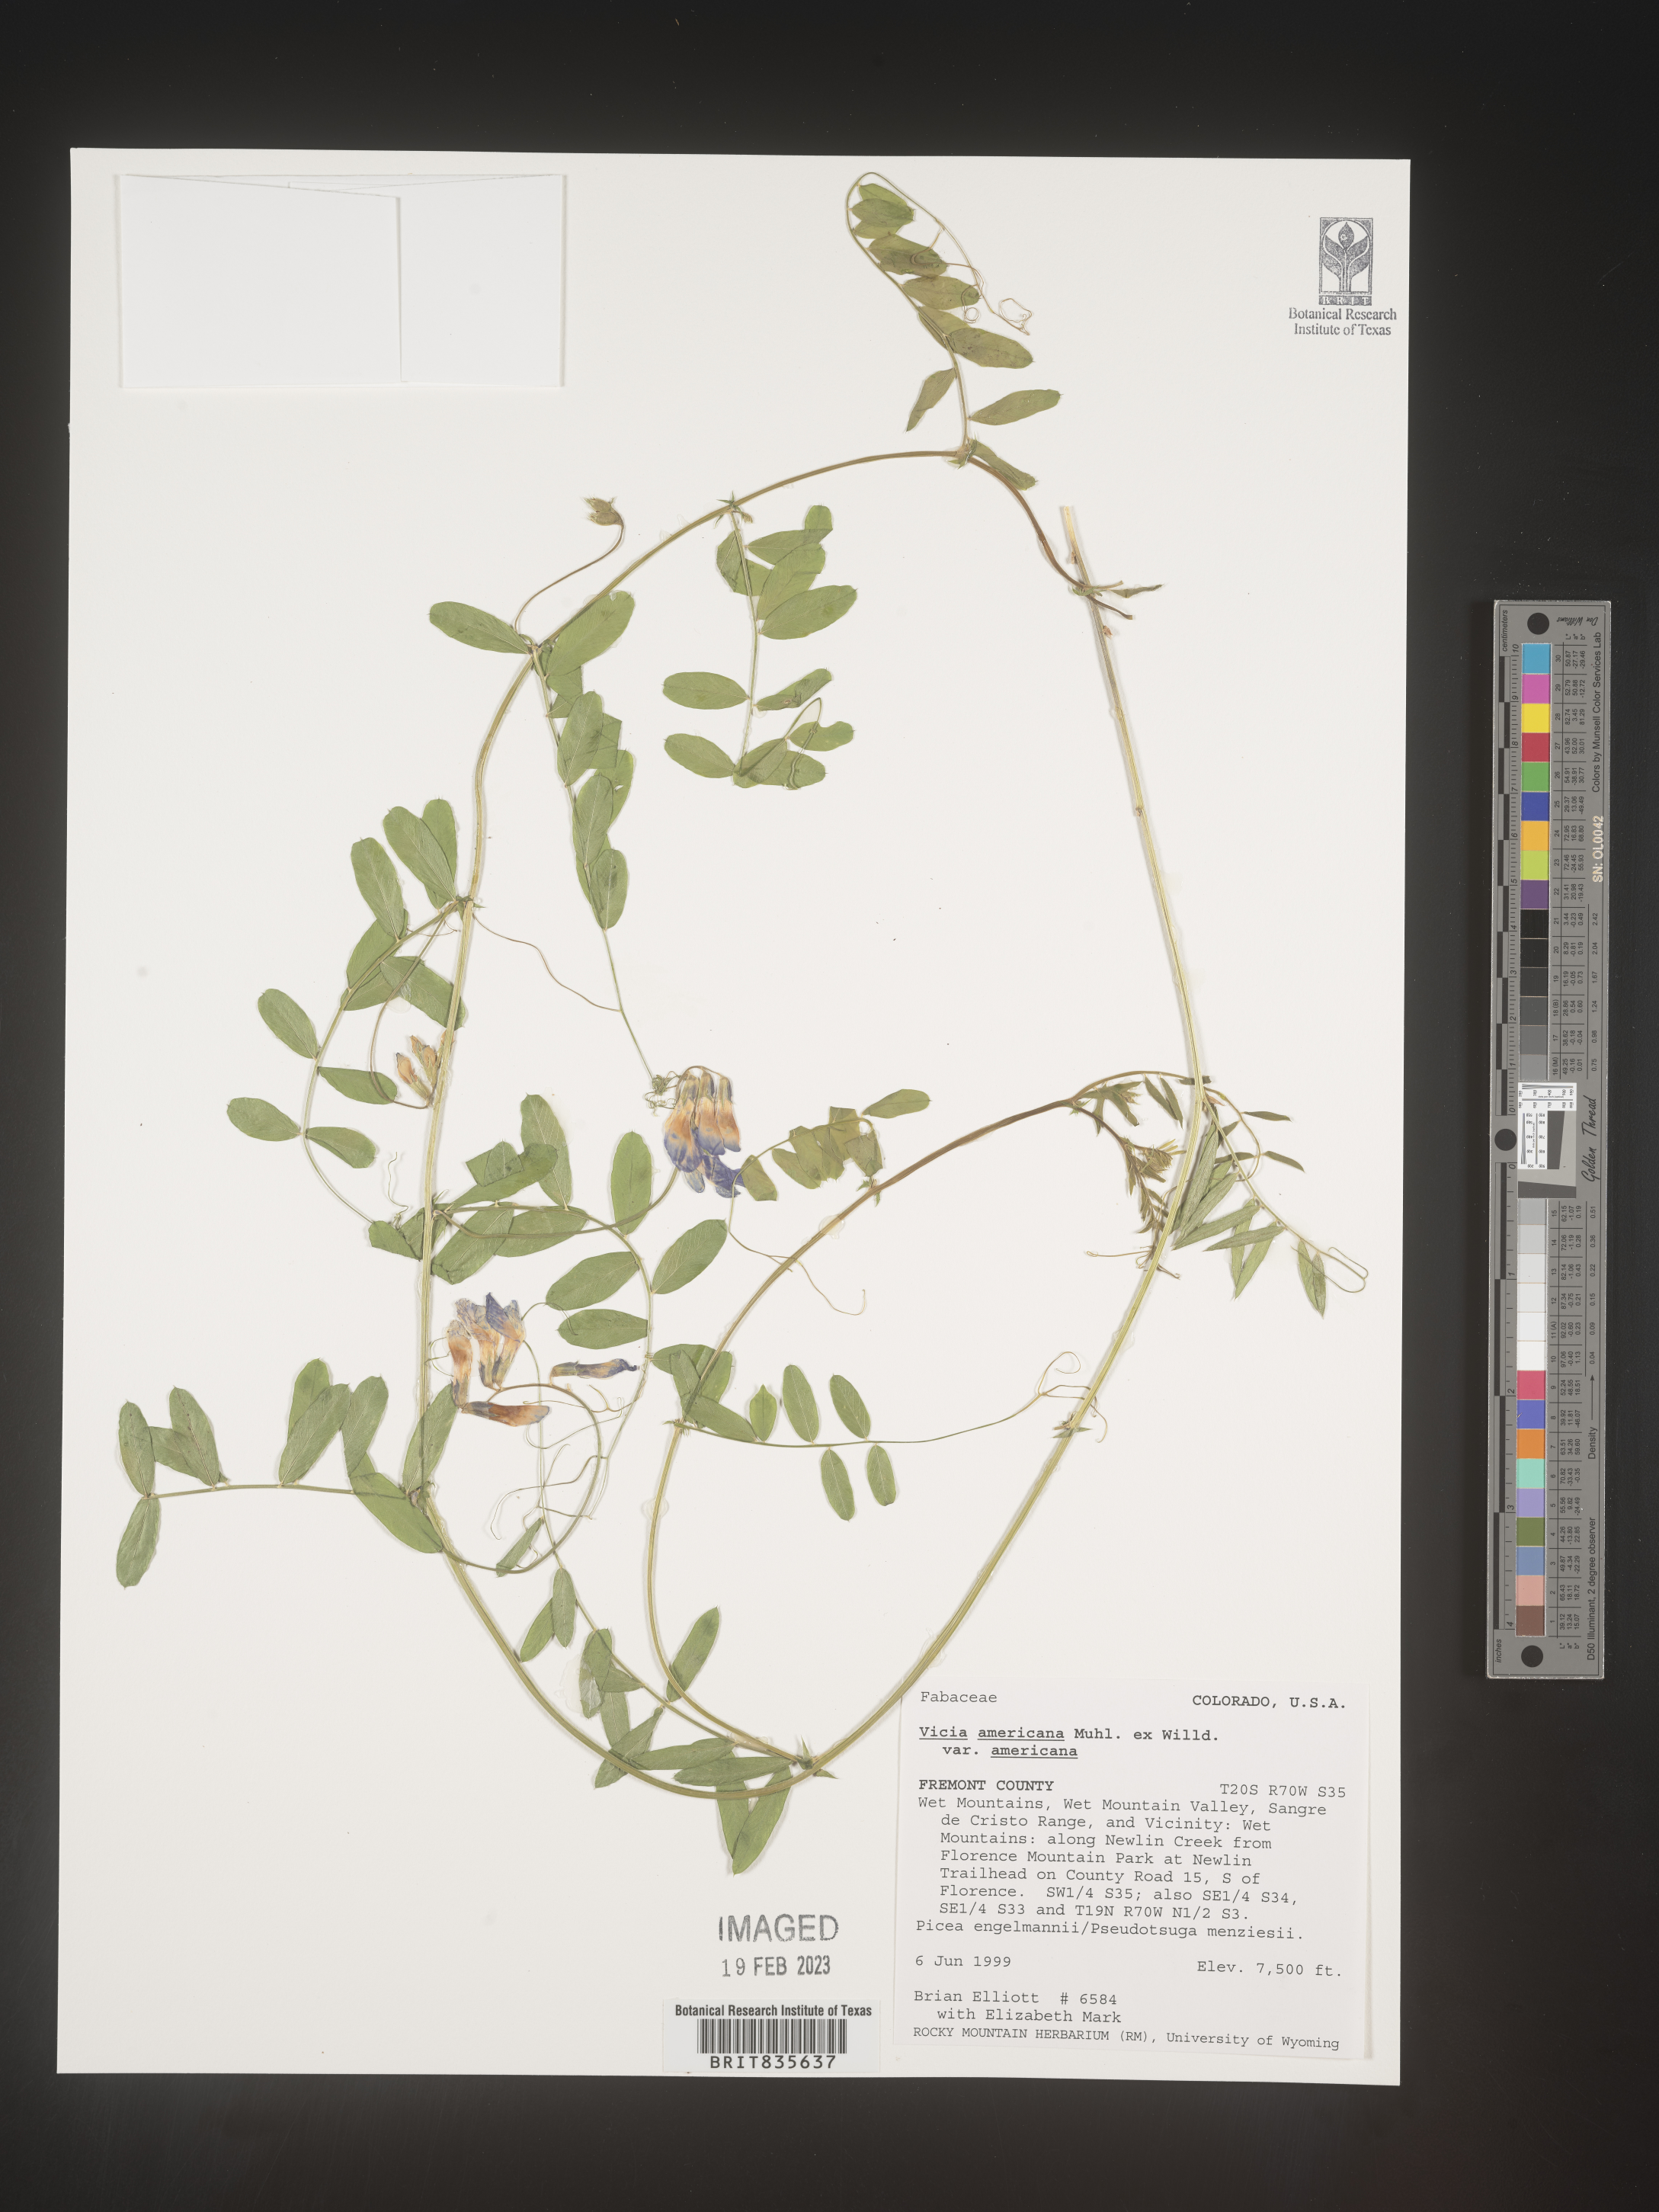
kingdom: Plantae
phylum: Tracheophyta
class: Magnoliopsida
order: Fabales
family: Fabaceae
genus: Vicia
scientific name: Vicia americana
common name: American vetch
